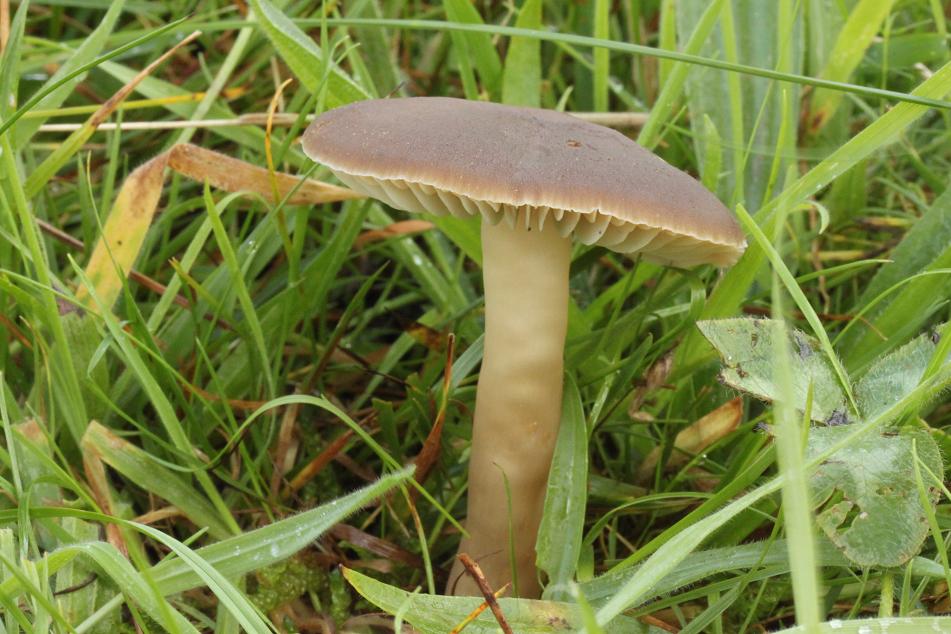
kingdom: Fungi
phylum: Basidiomycota
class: Agaricomycetes
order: Agaricales
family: Hygrophoraceae
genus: Neohygrocybe
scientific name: Neohygrocybe nitrata
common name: stinkende vokshat
